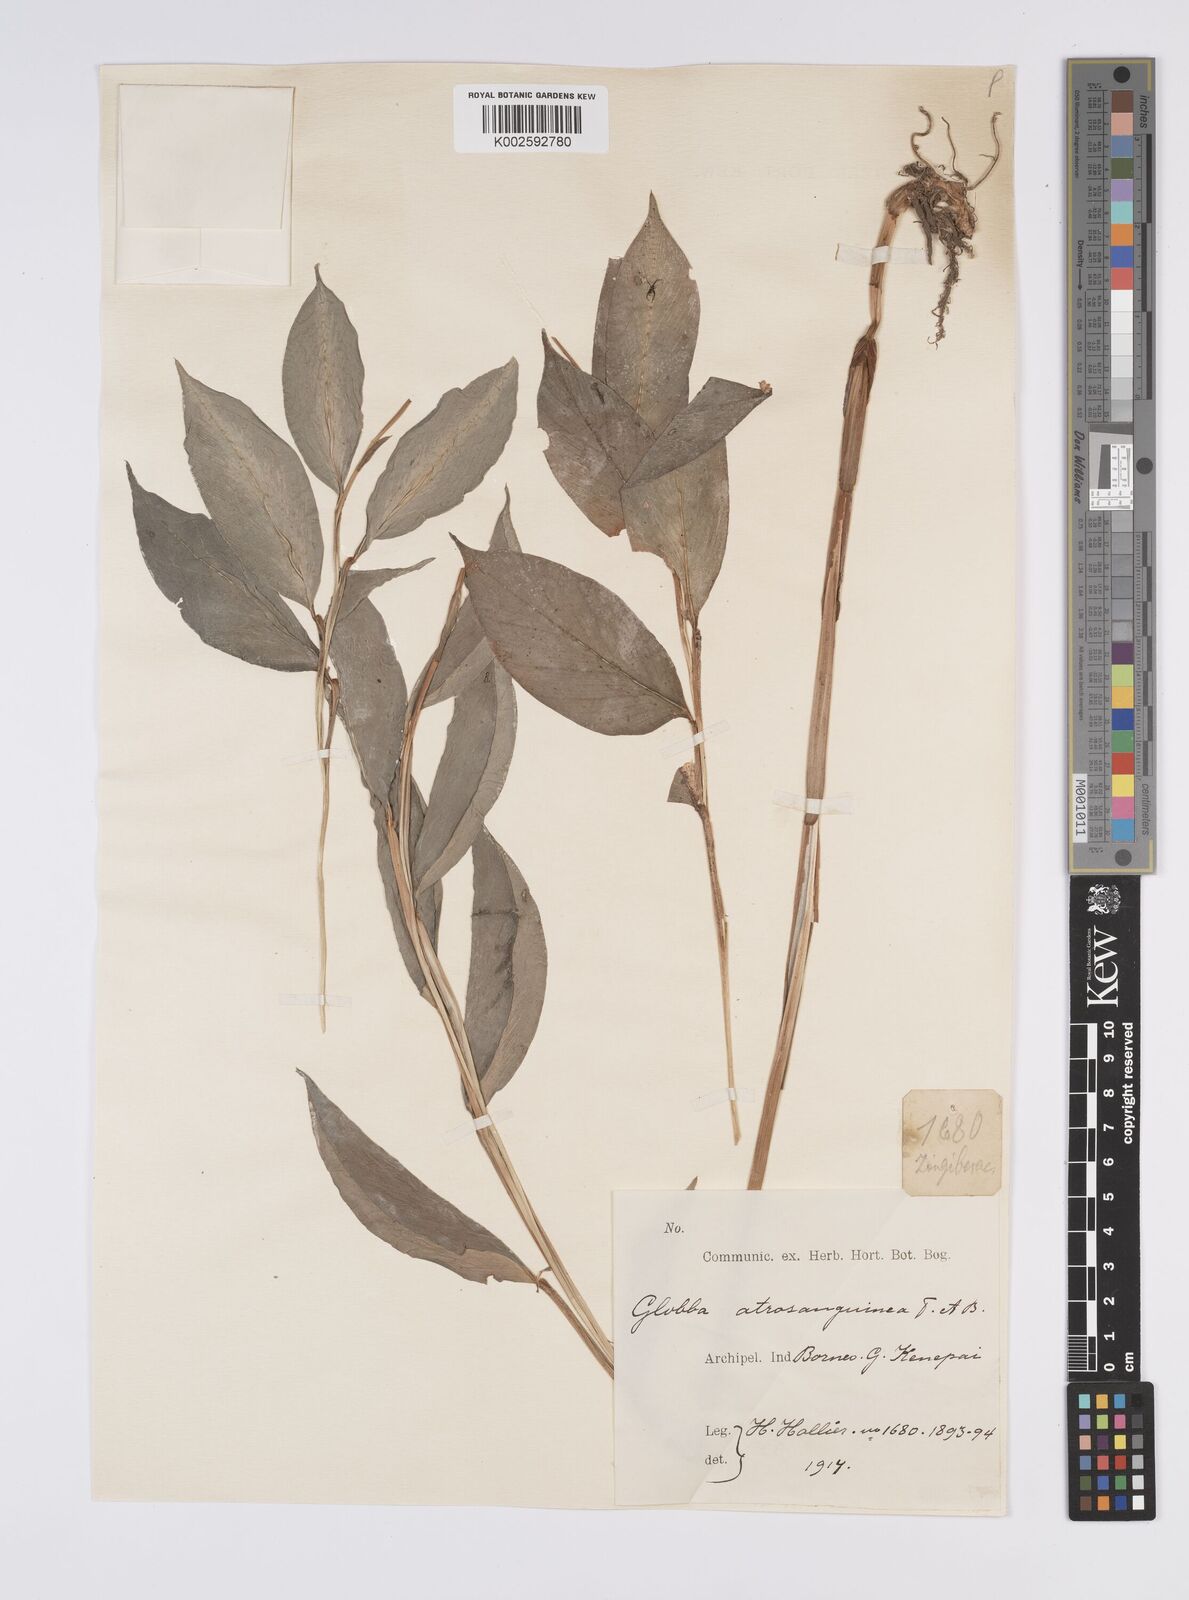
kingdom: Plantae
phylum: Tracheophyta
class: Liliopsida
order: Zingiberales
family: Zingiberaceae
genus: Globba
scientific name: Globba atrosanguinea
